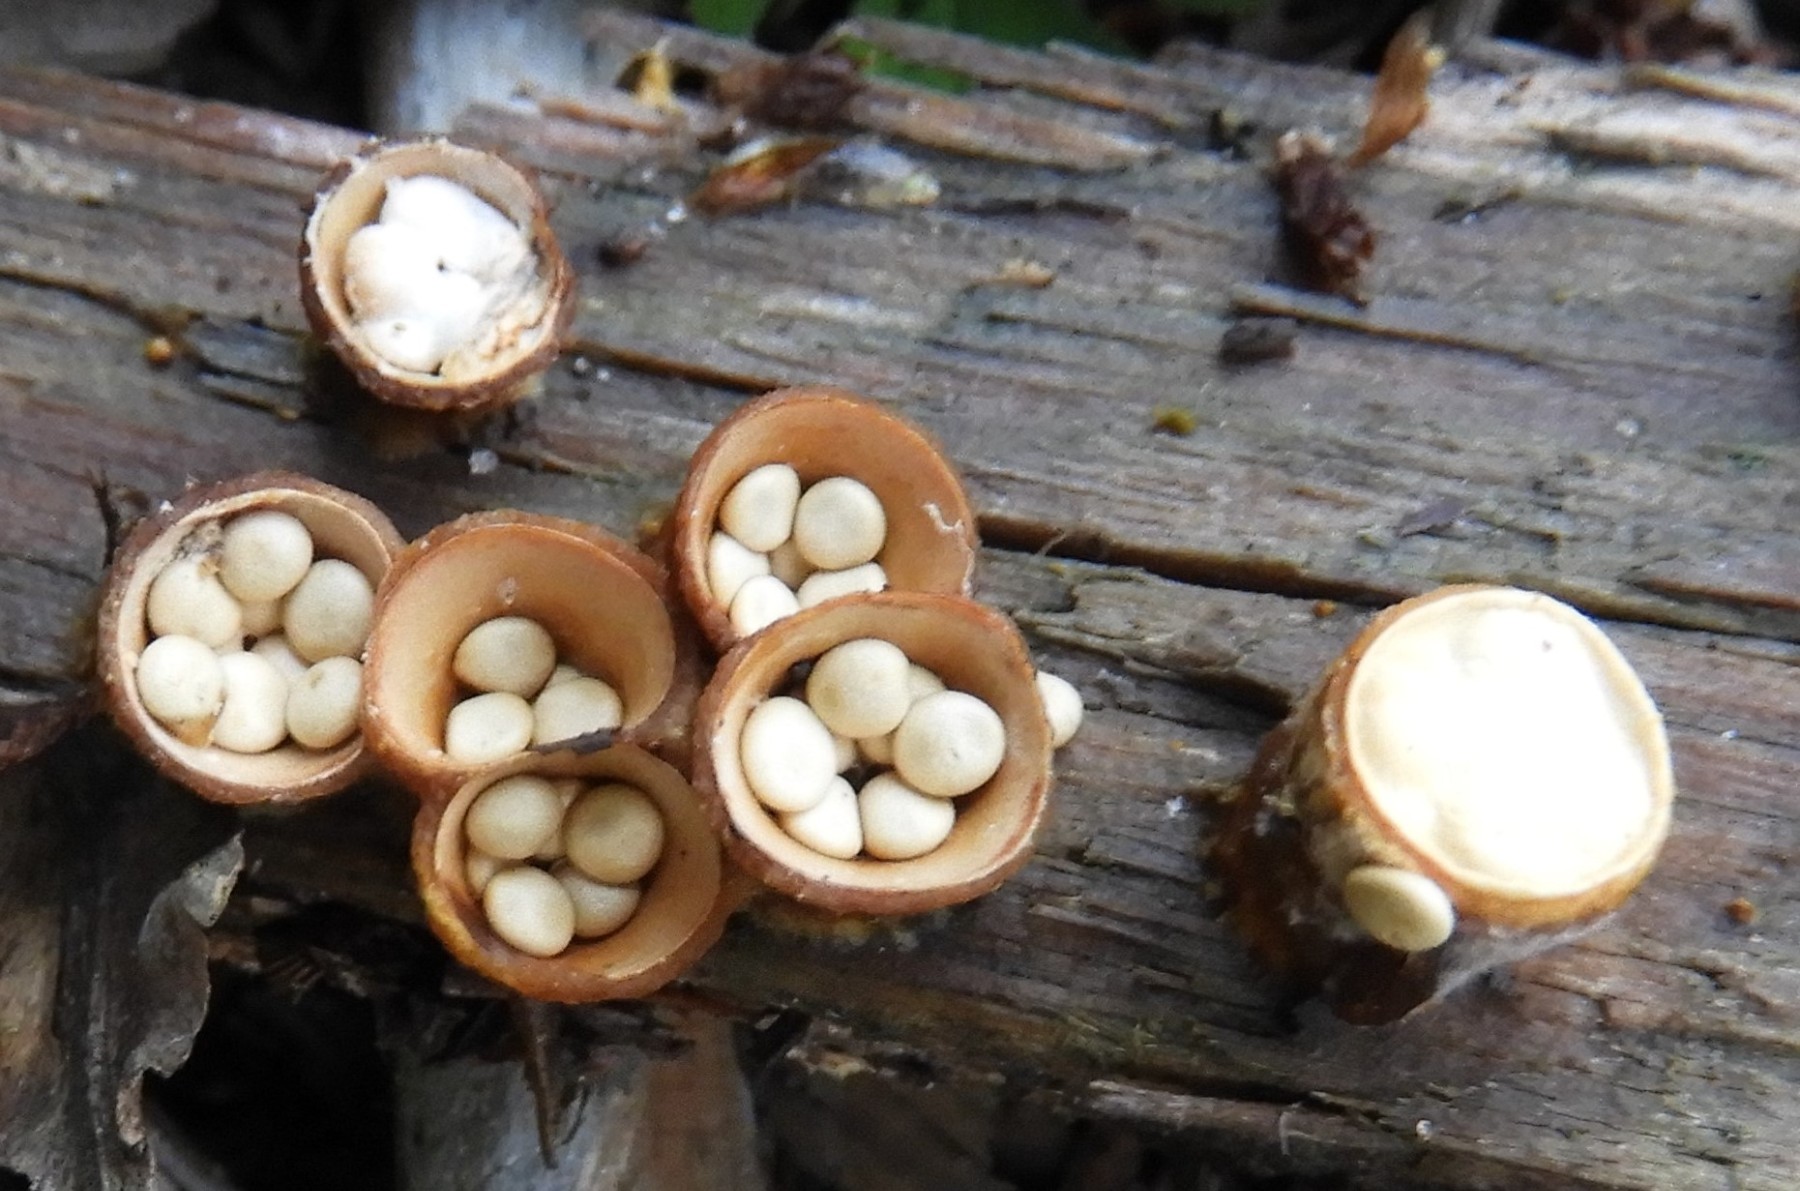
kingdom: Fungi
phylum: Basidiomycota
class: Agaricomycetes
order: Agaricales
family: Nidulariaceae
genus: Crucibulum
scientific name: Crucibulum crucibuliforme
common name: krukkesvamp
